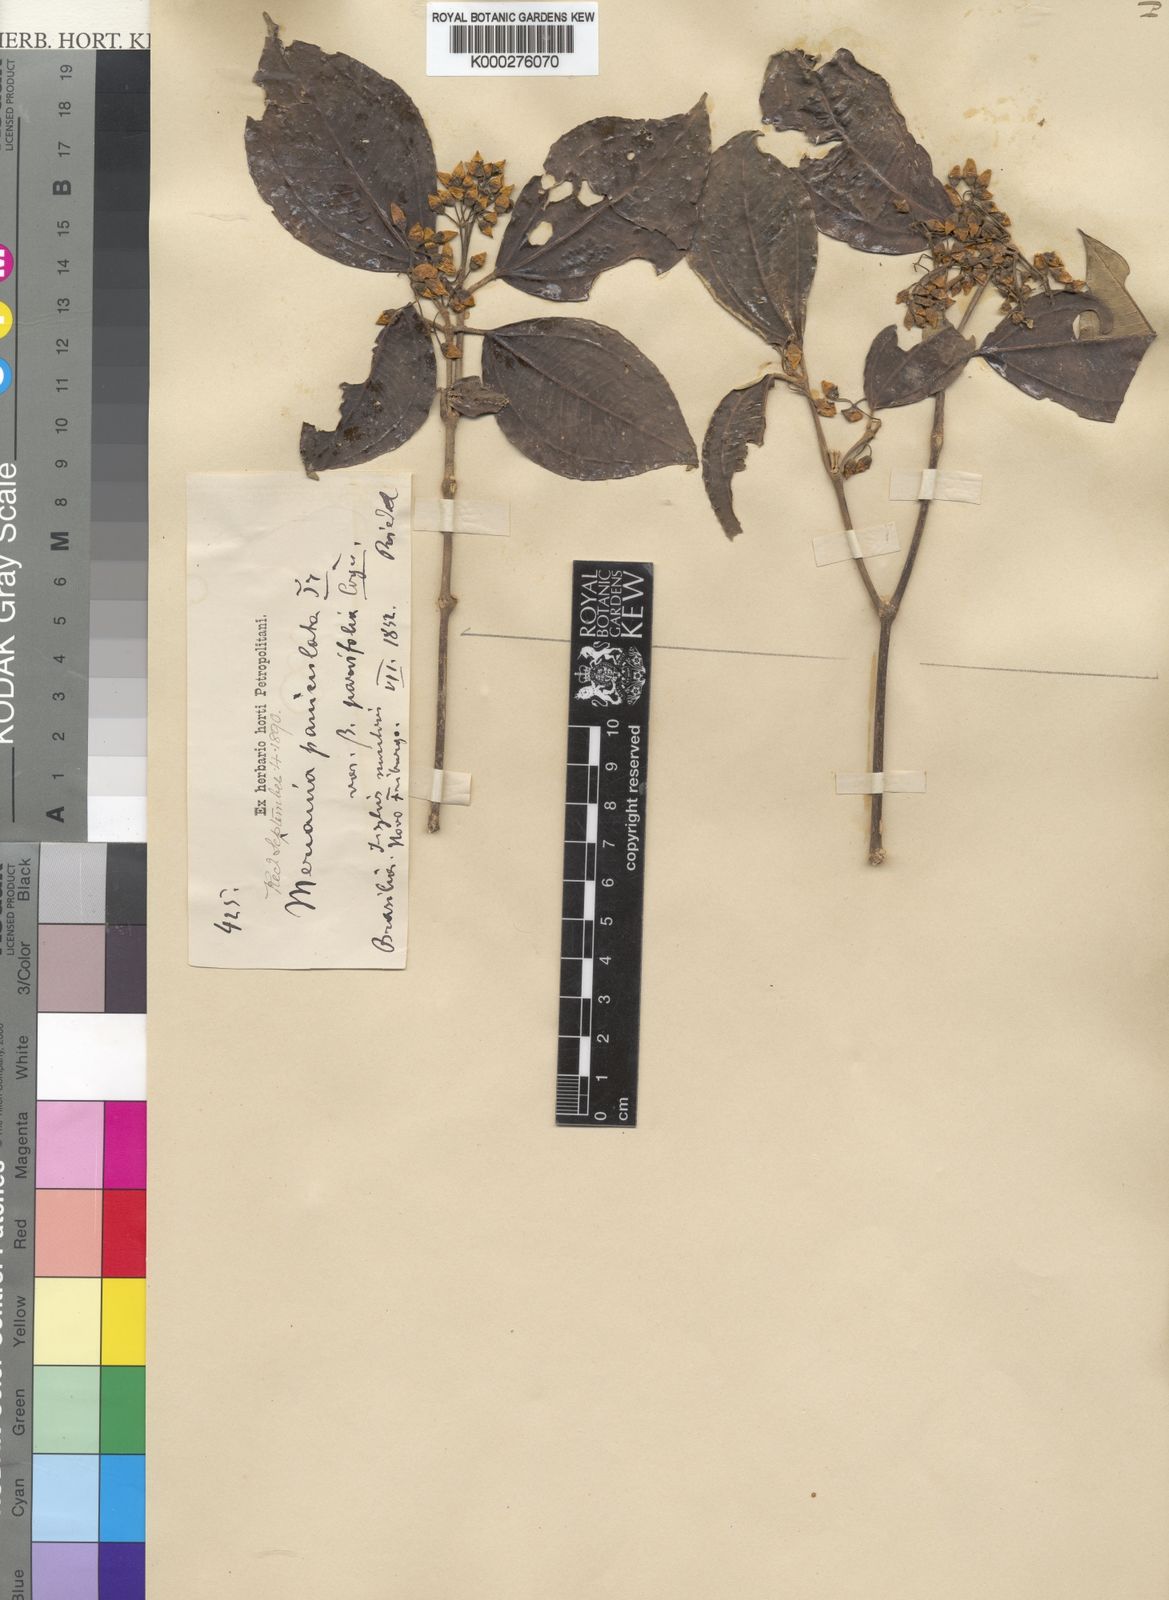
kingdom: Plantae
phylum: Tracheophyta
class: Magnoliopsida
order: Myrtales
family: Melastomataceae
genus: Meriania
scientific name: Meriania paniculata
